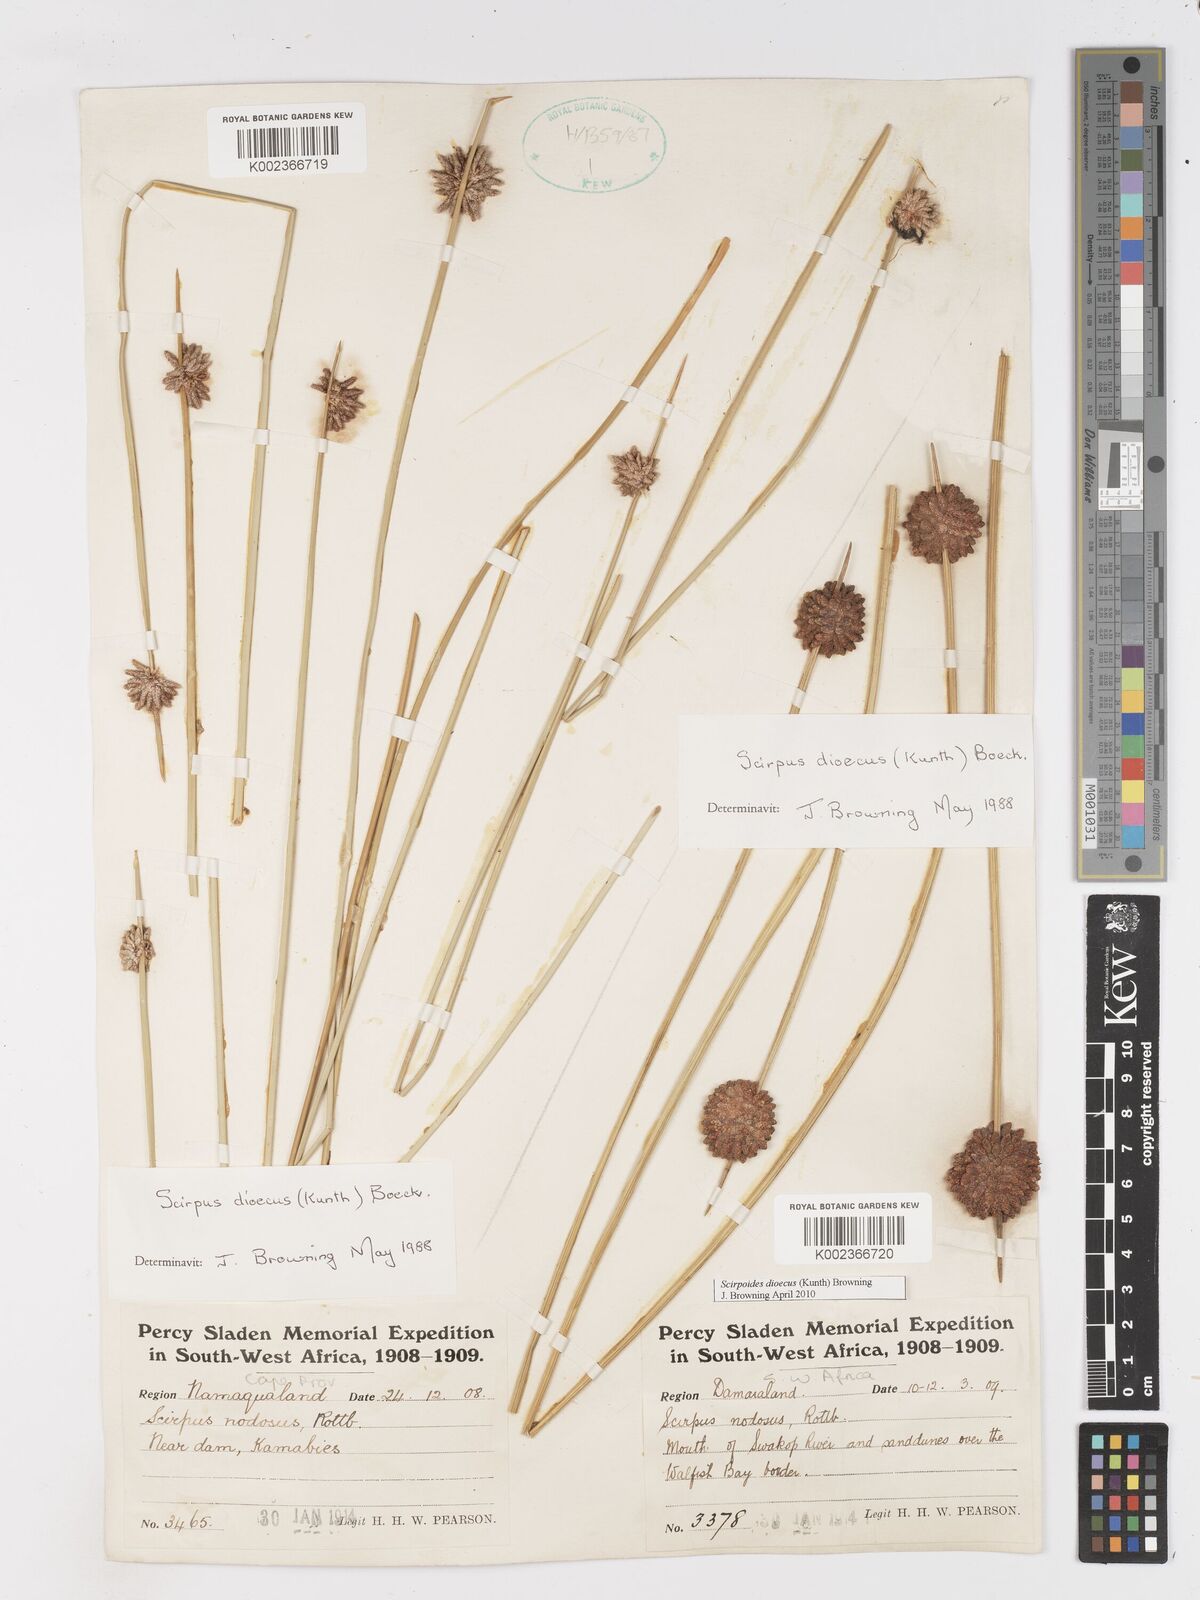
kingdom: Plantae
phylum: Tracheophyta
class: Liliopsida
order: Poales
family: Cyperaceae
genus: Scirpoides
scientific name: Scirpoides
